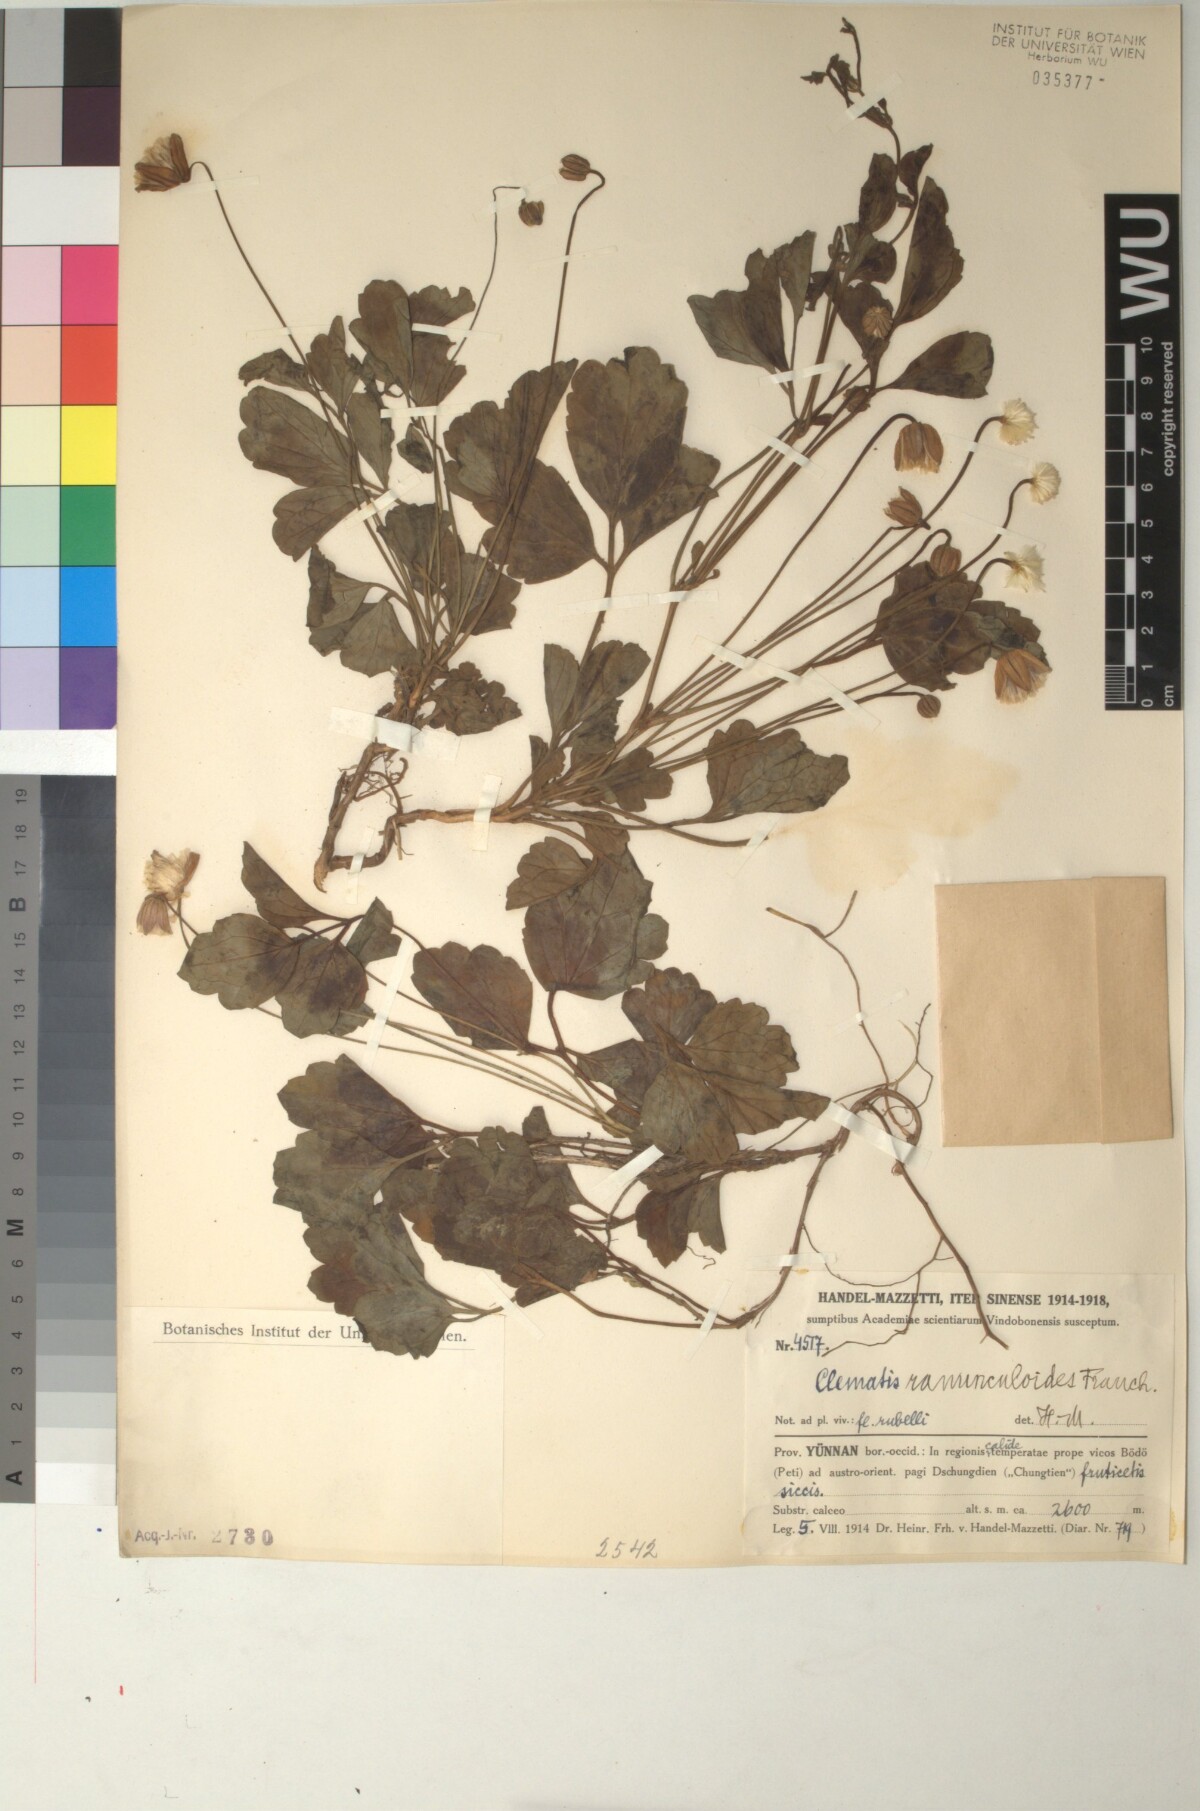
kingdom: Plantae
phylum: Tracheophyta
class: Magnoliopsida
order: Ranunculales
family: Ranunculaceae
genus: Clematis
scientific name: Clematis ranunculoides
